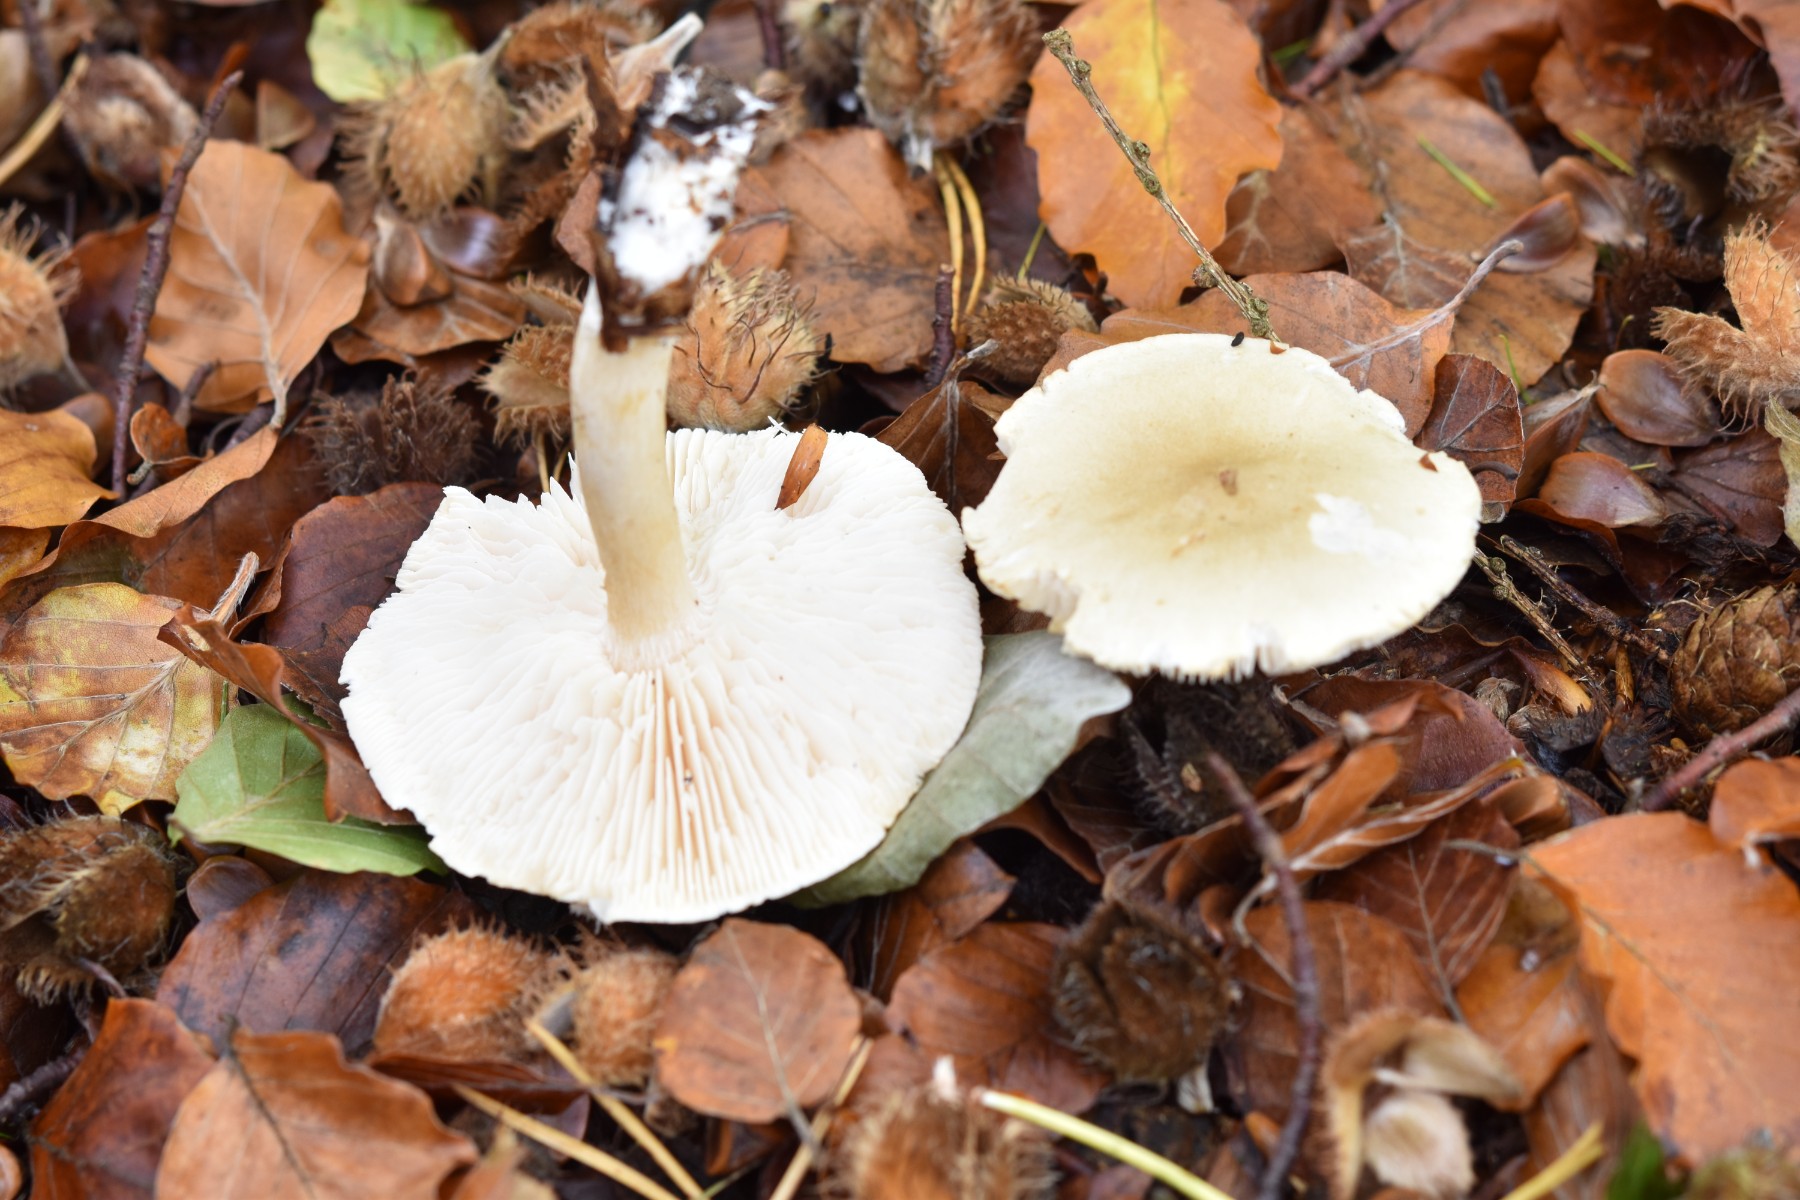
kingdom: Fungi
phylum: Basidiomycota
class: Agaricomycetes
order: Agaricales
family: Tricholomataceae
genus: Tricholoma
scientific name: Tricholoma lascivum
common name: stinkende ridderhat
